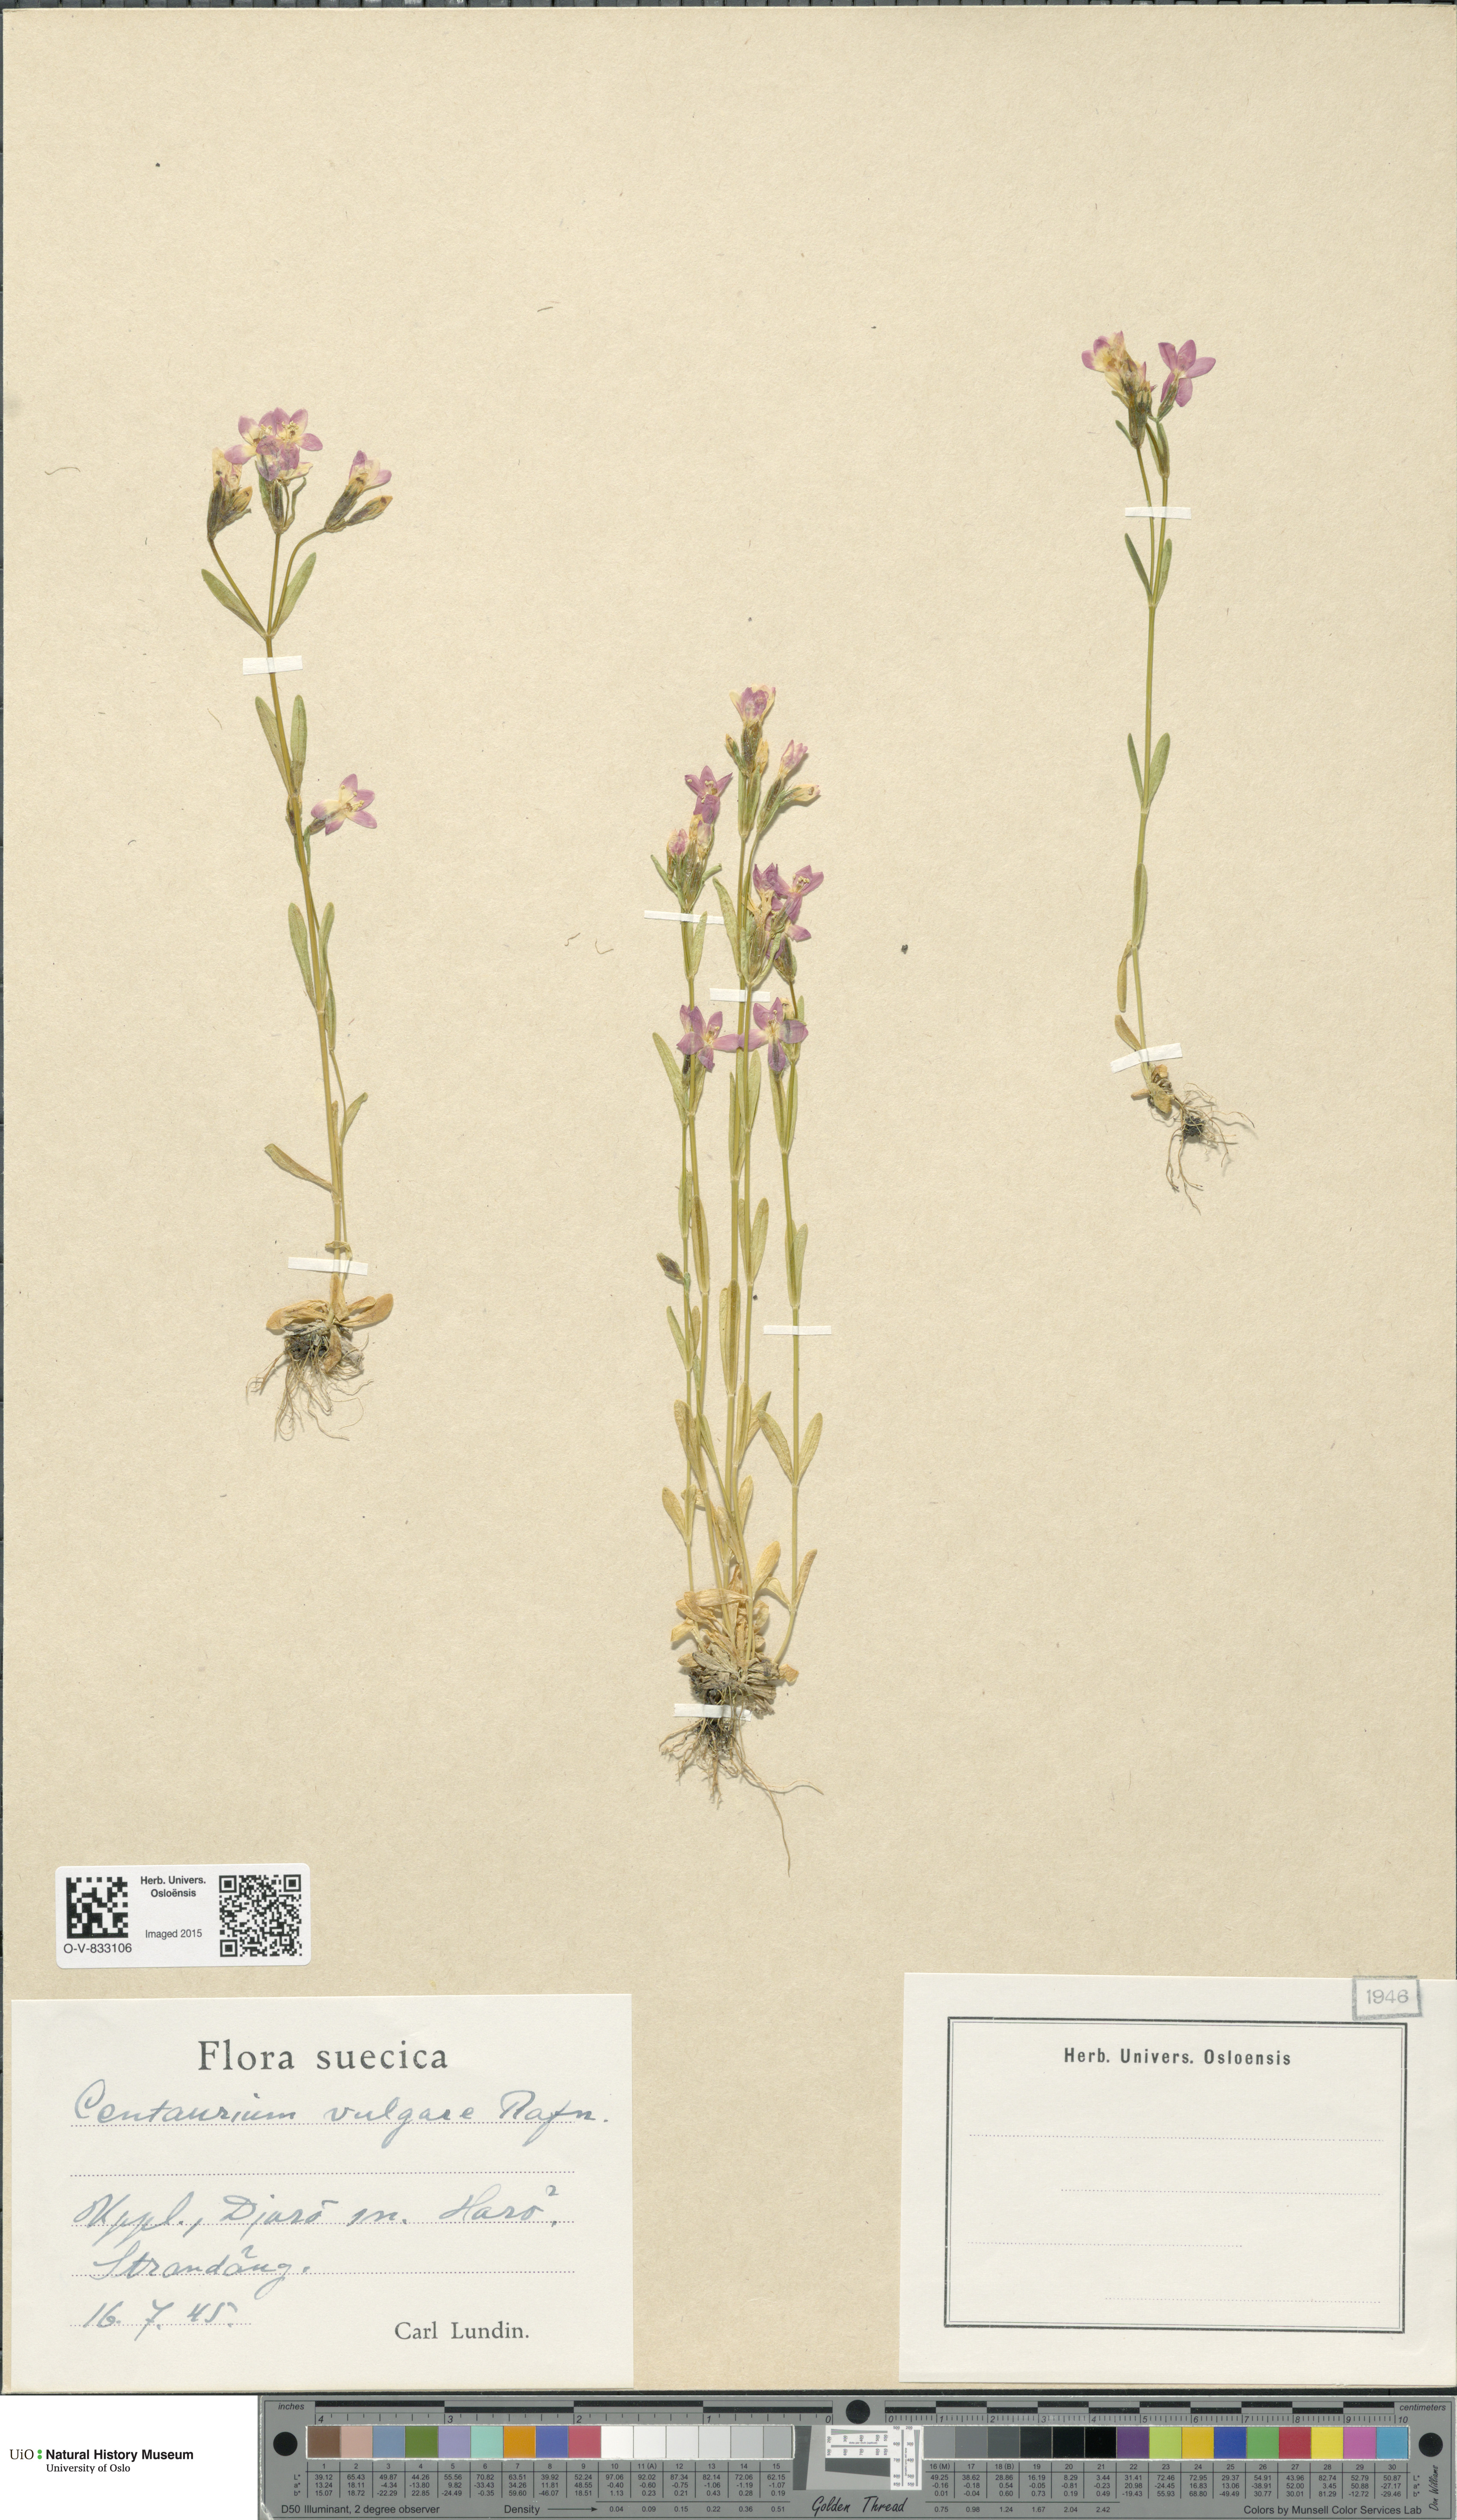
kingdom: Plantae
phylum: Tracheophyta
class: Magnoliopsida
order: Gentianales
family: Gentianaceae
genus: Centaurium
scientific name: Centaurium littorale
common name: Seaside centaury
